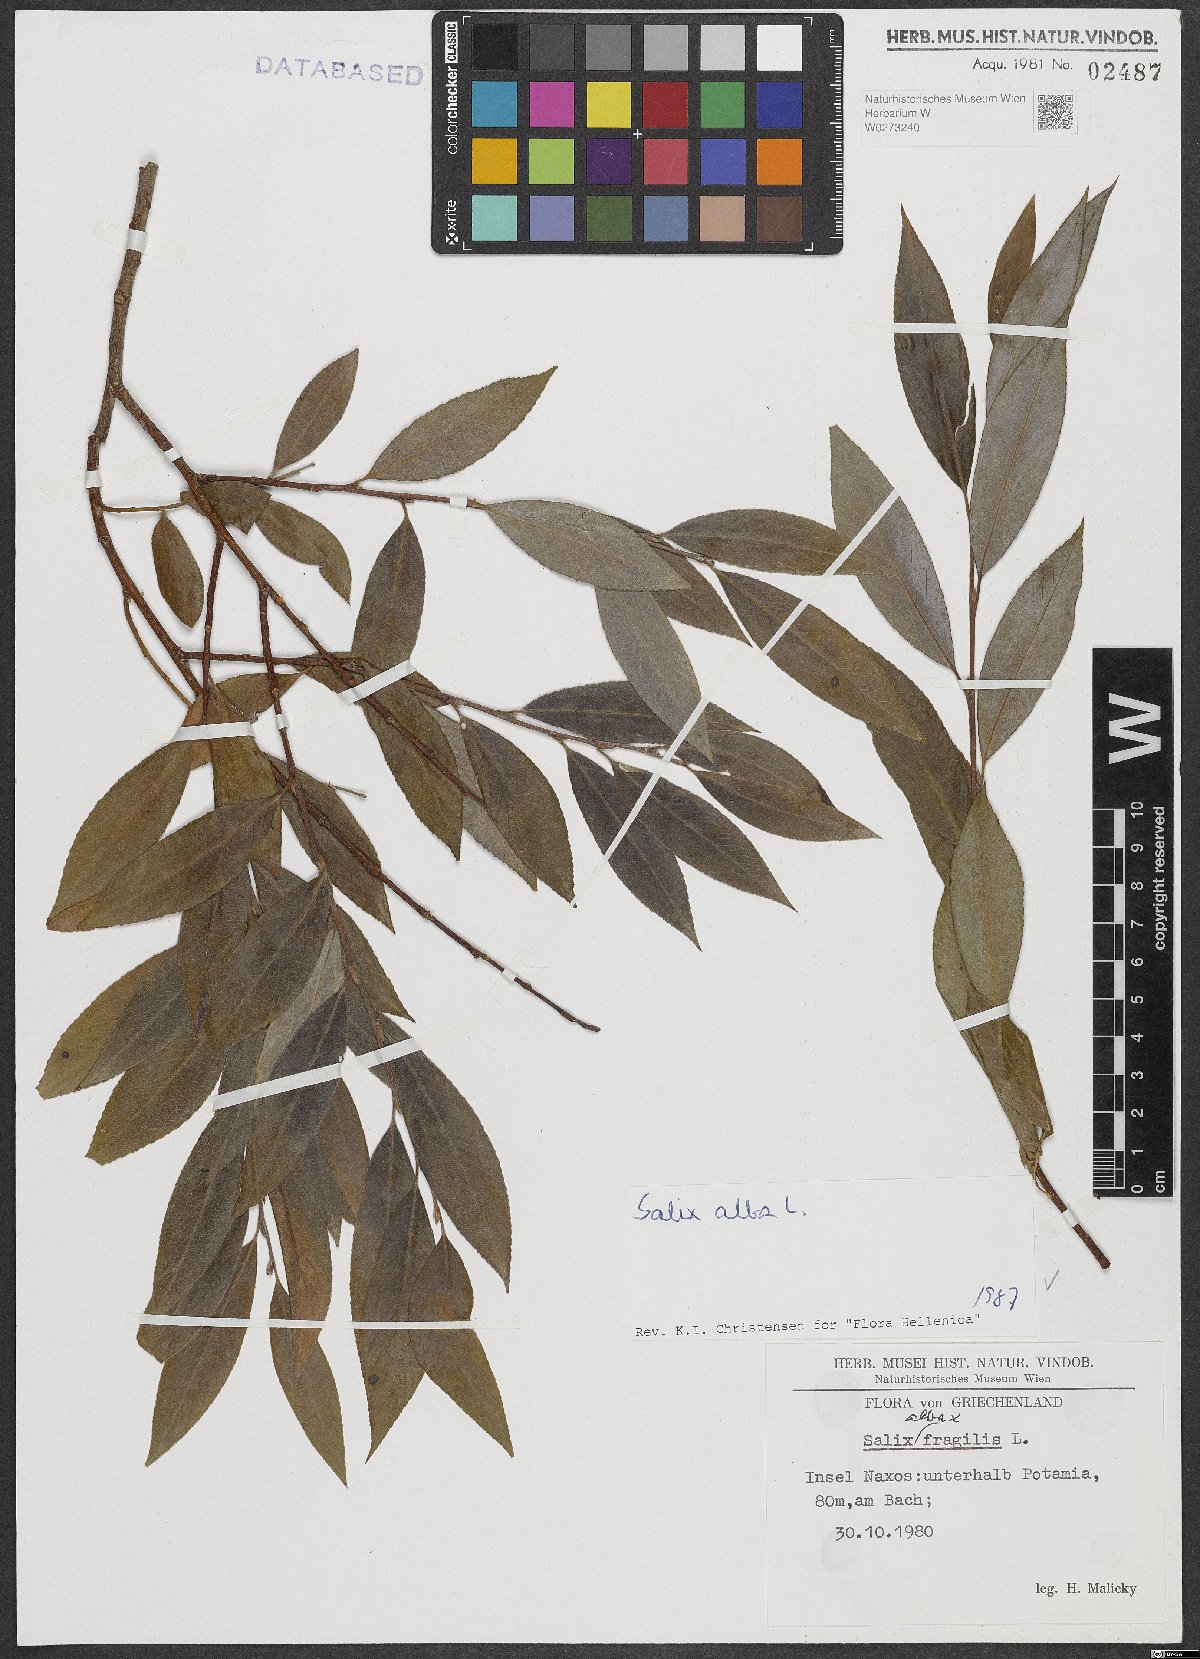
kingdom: Plantae
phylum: Tracheophyta
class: Magnoliopsida
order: Malpighiales
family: Salicaceae
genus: Salix
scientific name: Salix alba
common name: White willow
